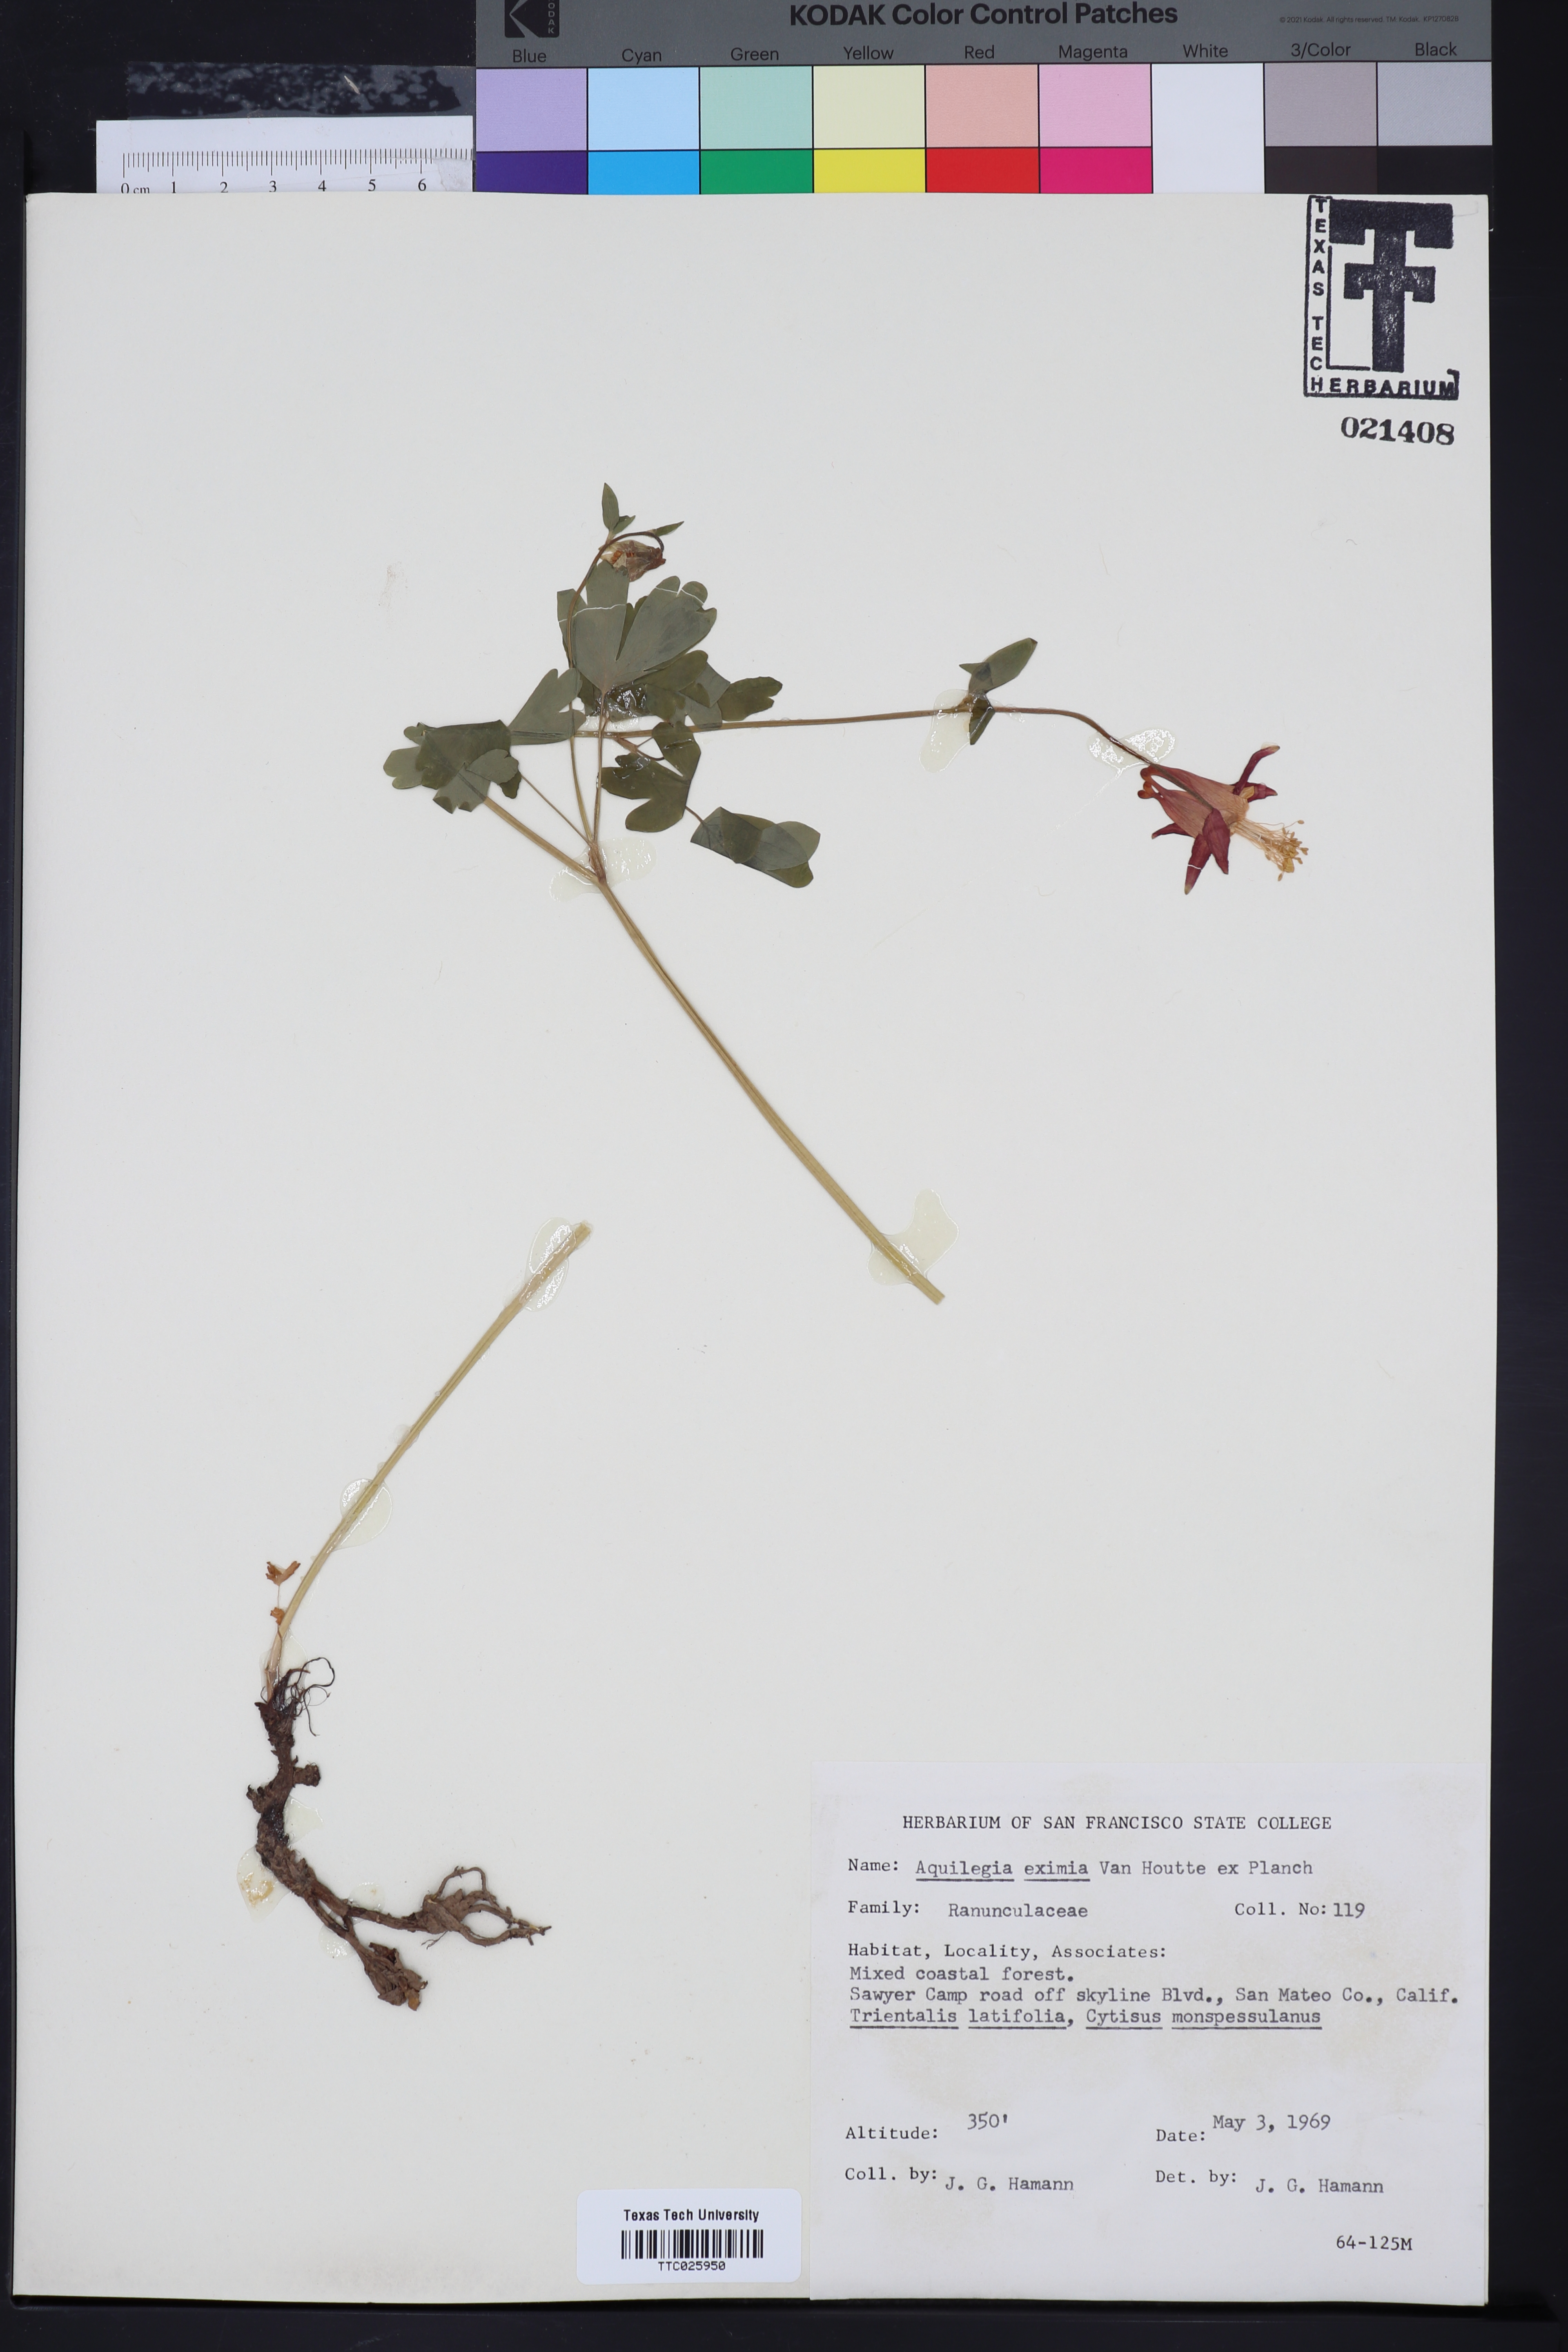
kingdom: Plantae
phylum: Tracheophyta
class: Magnoliopsida
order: Ranunculales
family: Ranunculaceae
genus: Aquilegia
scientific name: Aquilegia eximia
